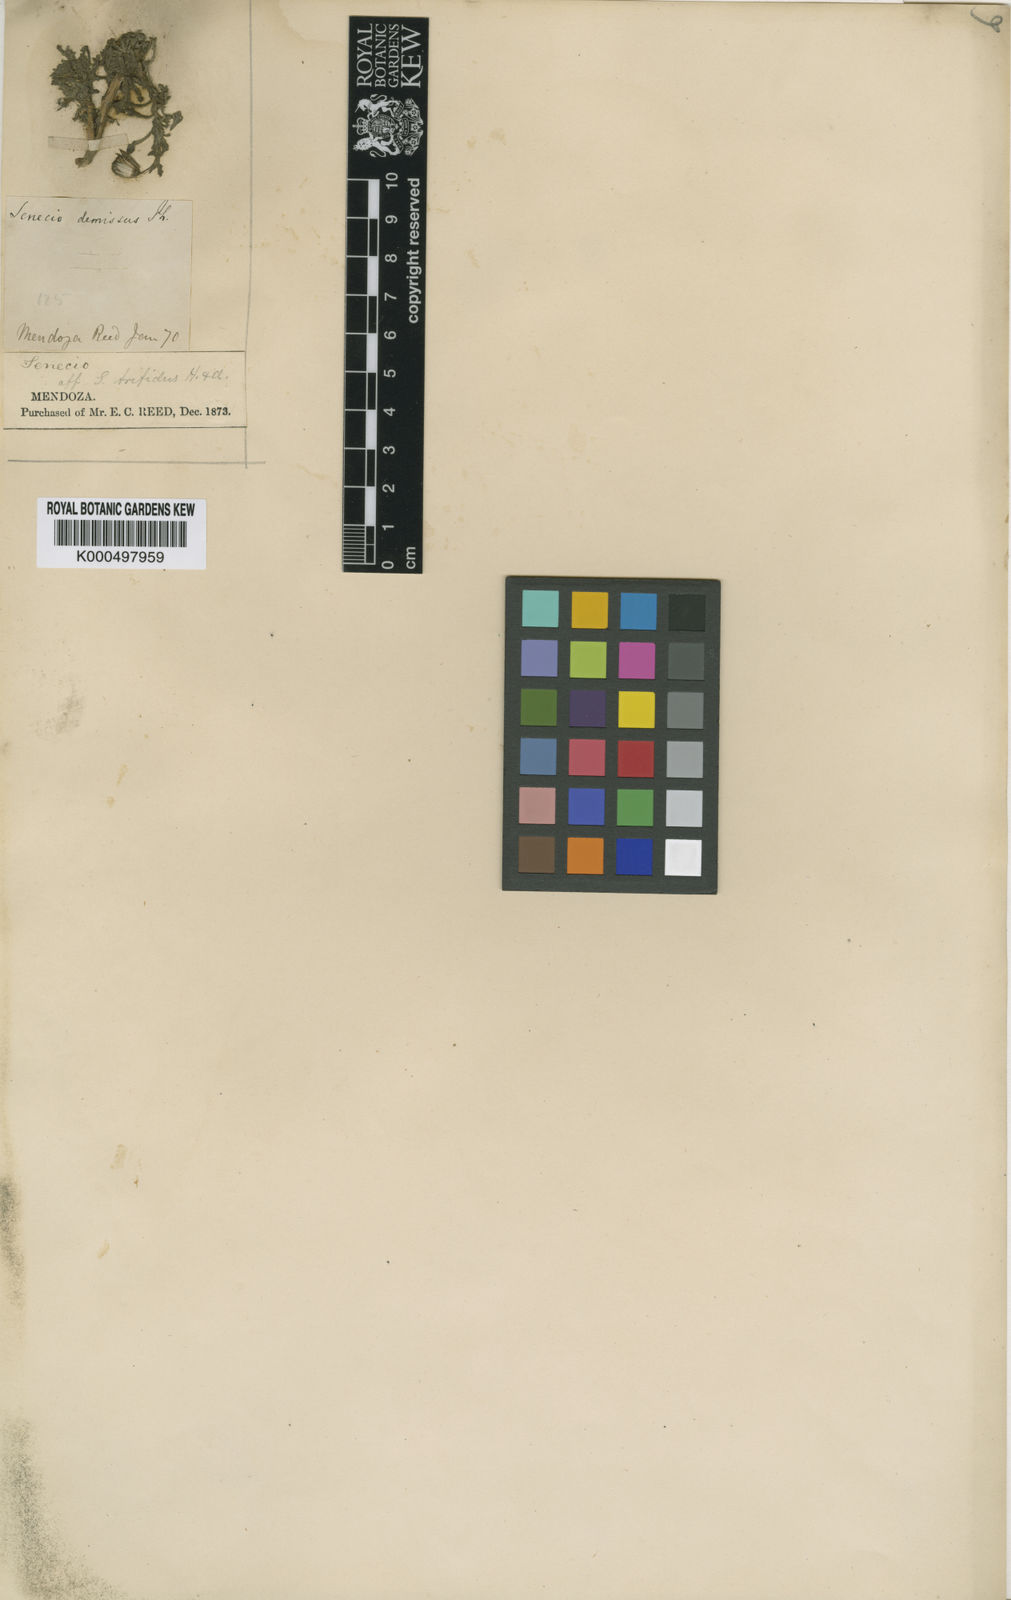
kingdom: Plantae
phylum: Tracheophyta
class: Magnoliopsida
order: Asterales
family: Asteraceae
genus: Senecio
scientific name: Senecio trifidus
